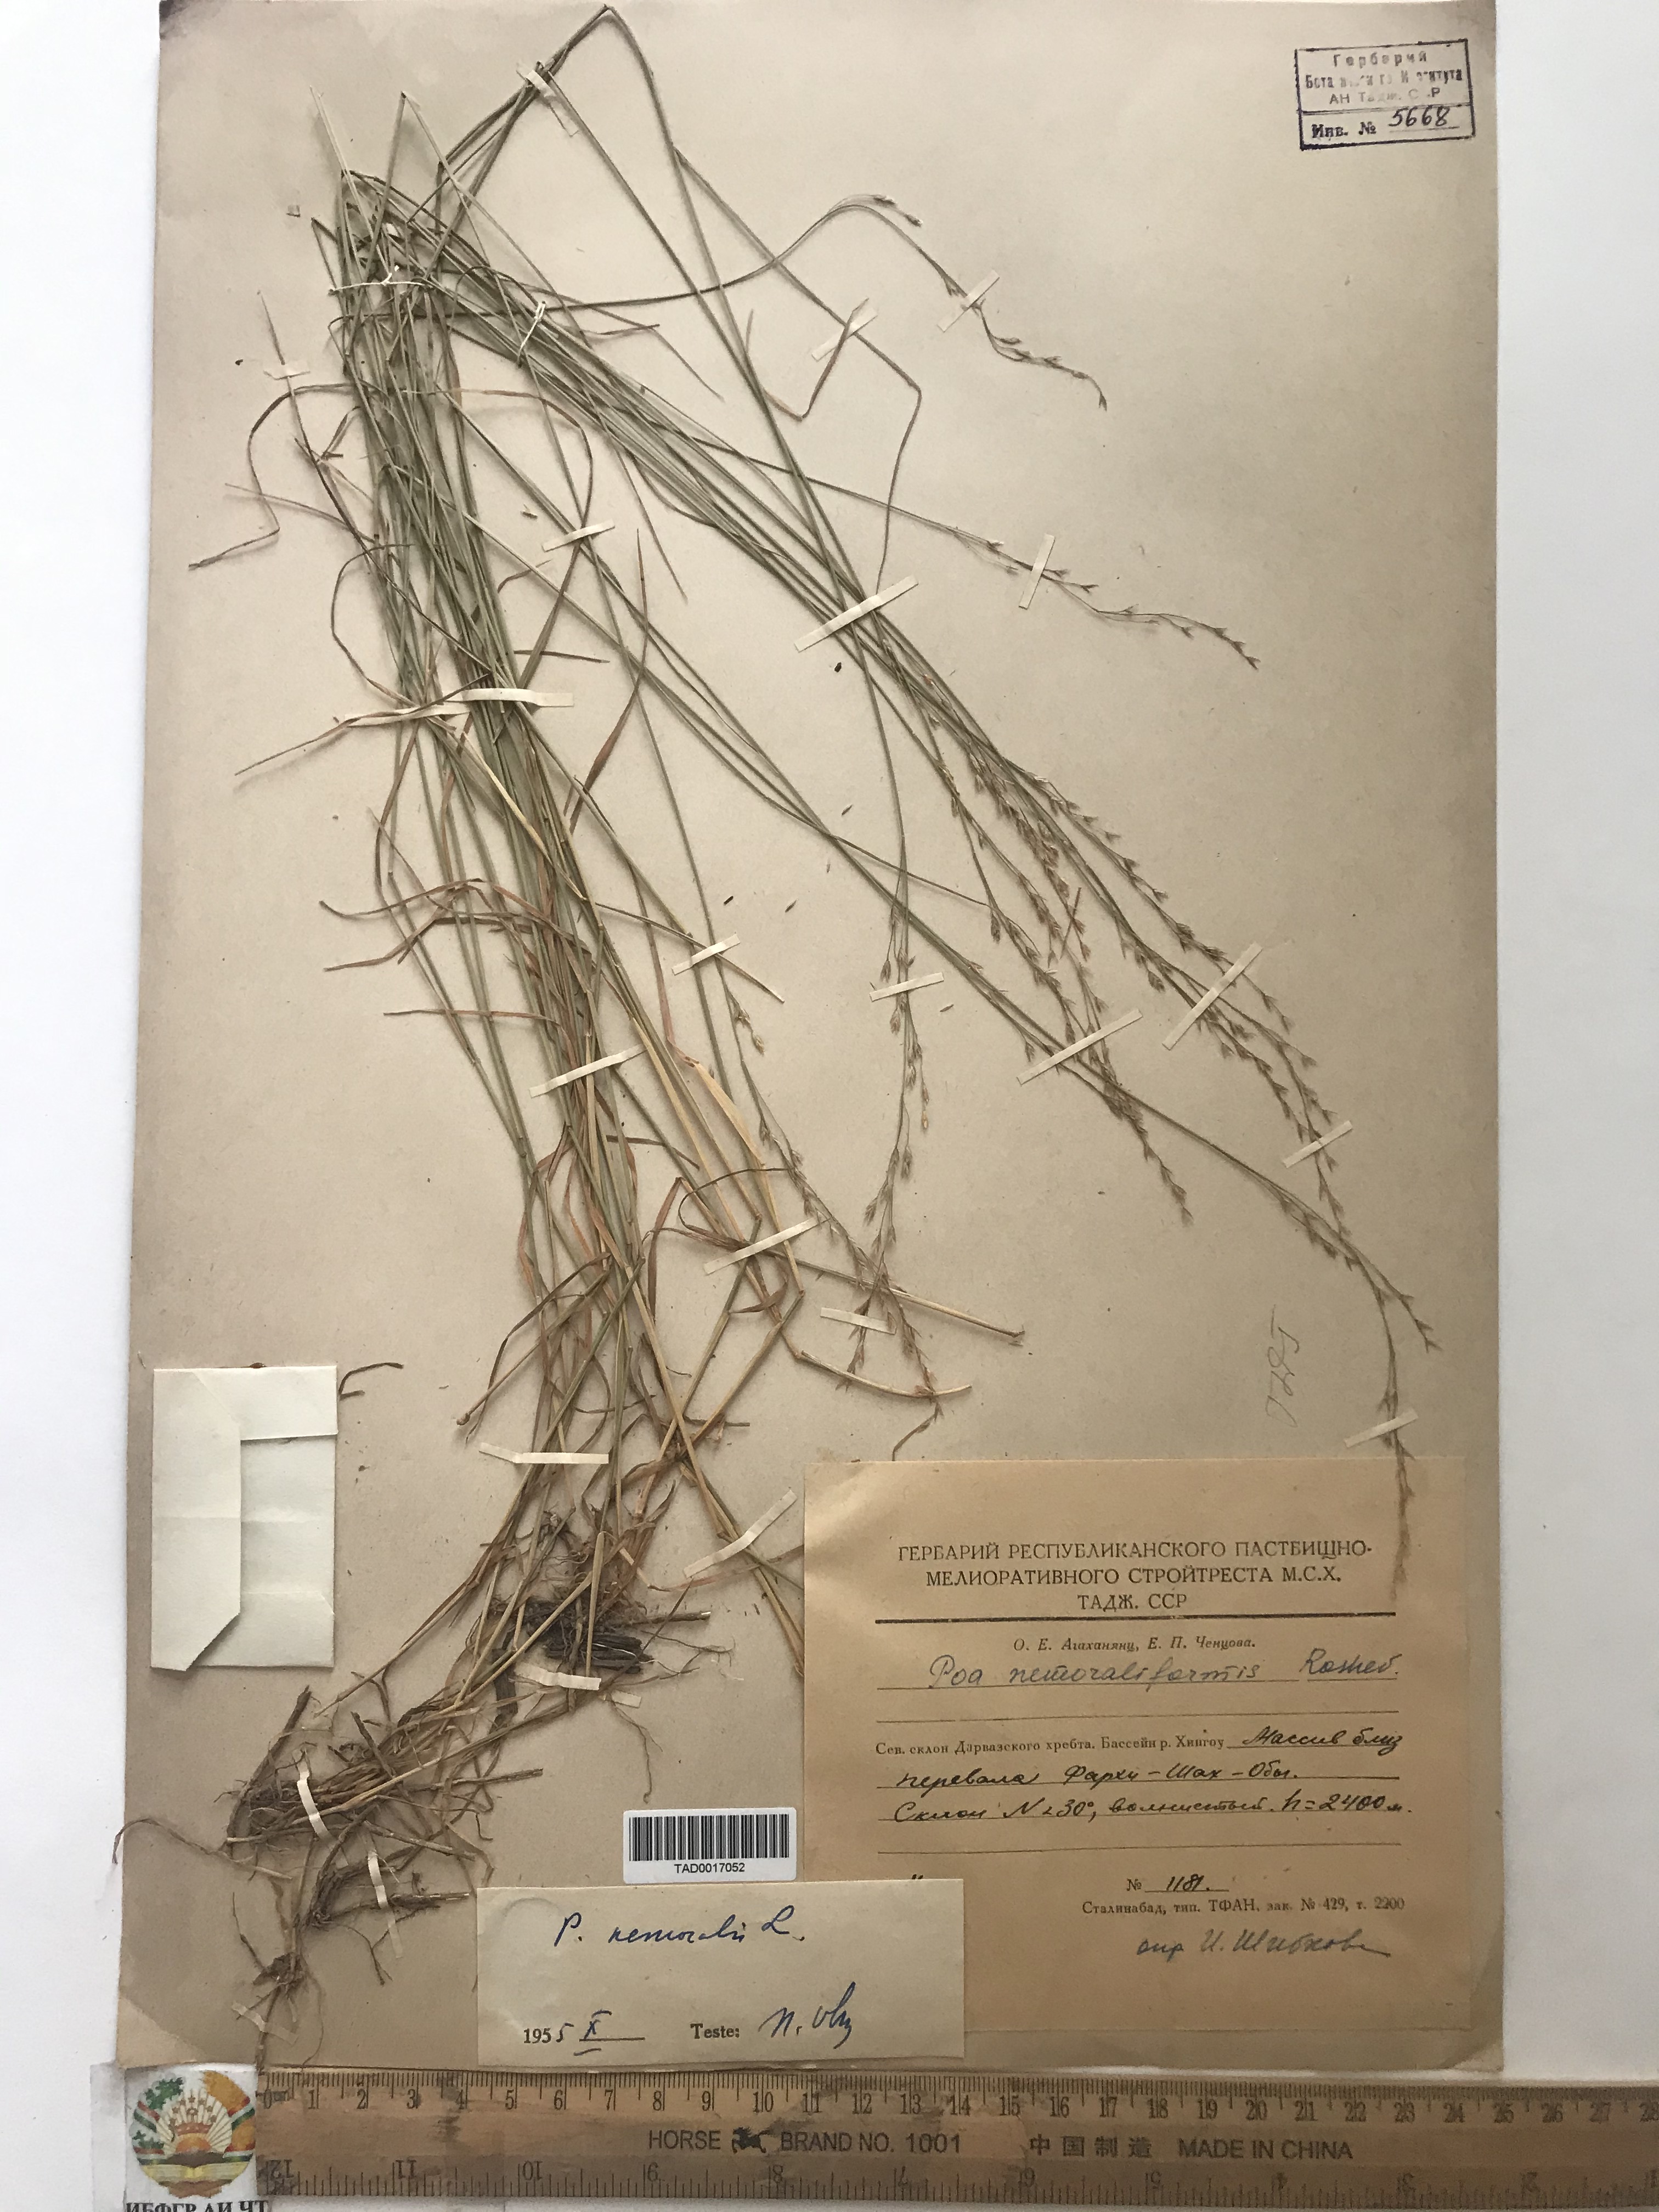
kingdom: Plantae
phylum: Tracheophyta
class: Liliopsida
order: Poales
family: Poaceae
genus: Poa
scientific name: Poa nemoralis
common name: Wood bluegrass
